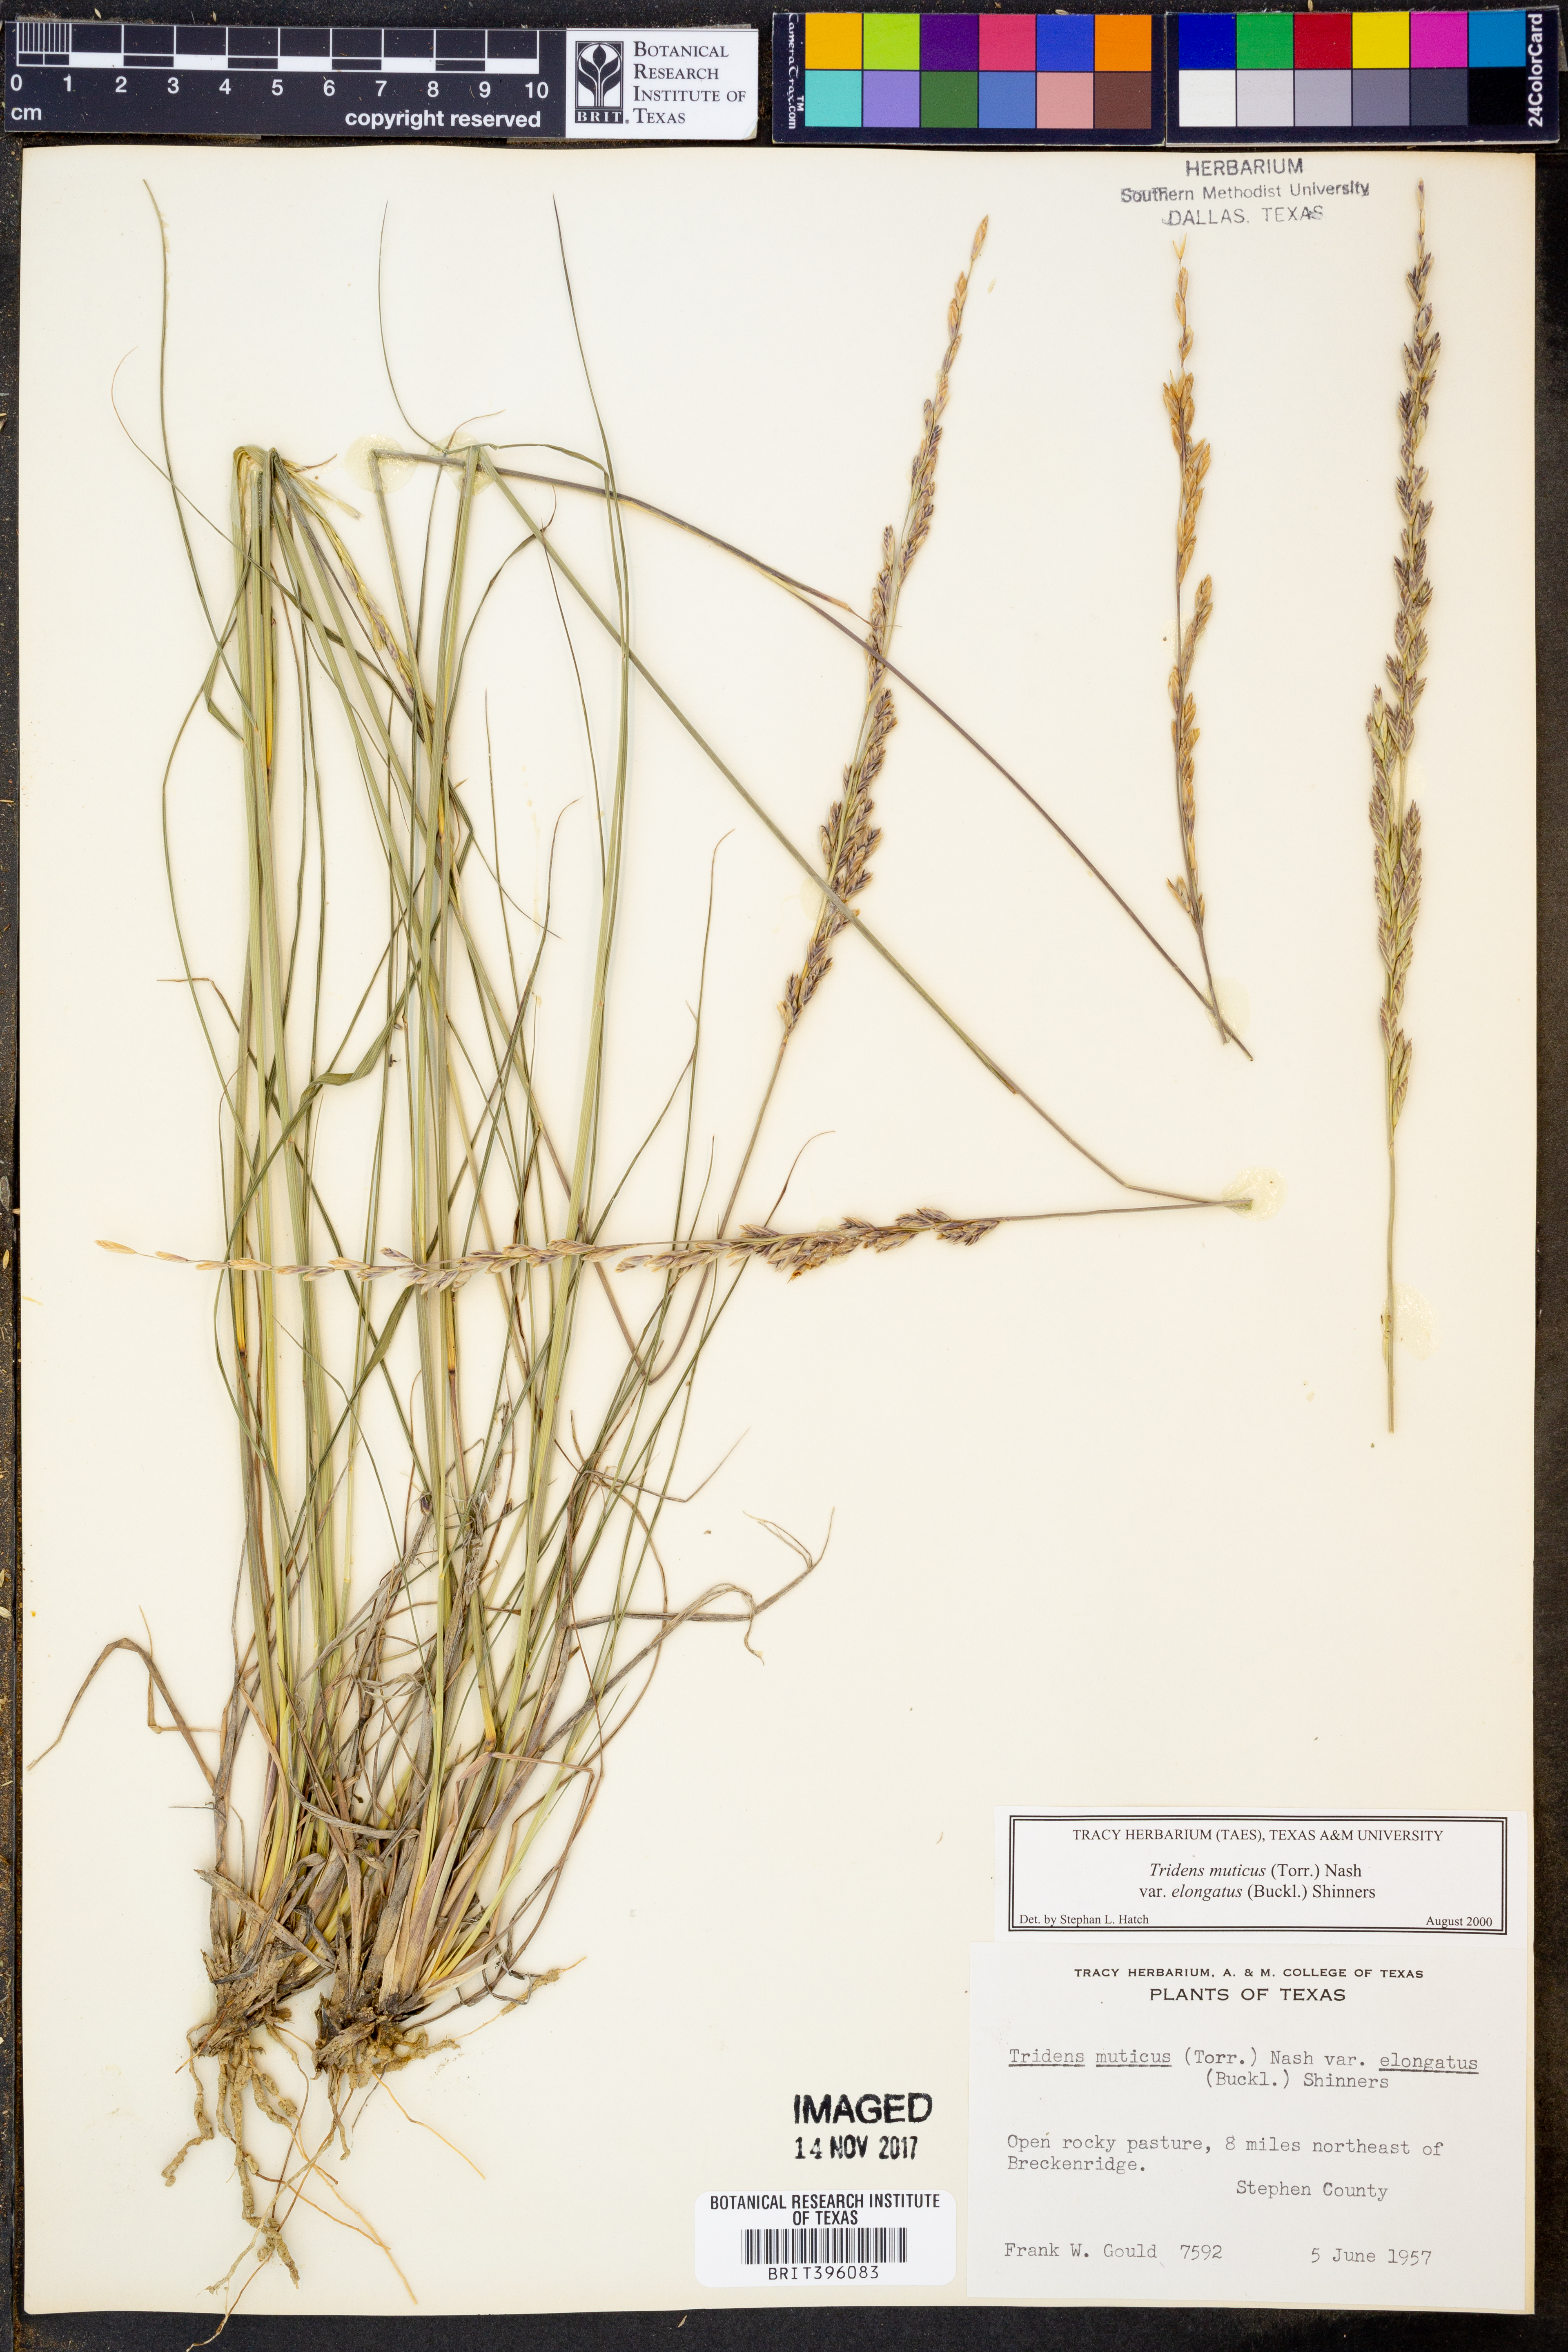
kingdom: Plantae
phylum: Tracheophyta
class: Liliopsida
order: Poales
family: Poaceae
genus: Tridentopsis
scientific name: Tridentopsis mutica
